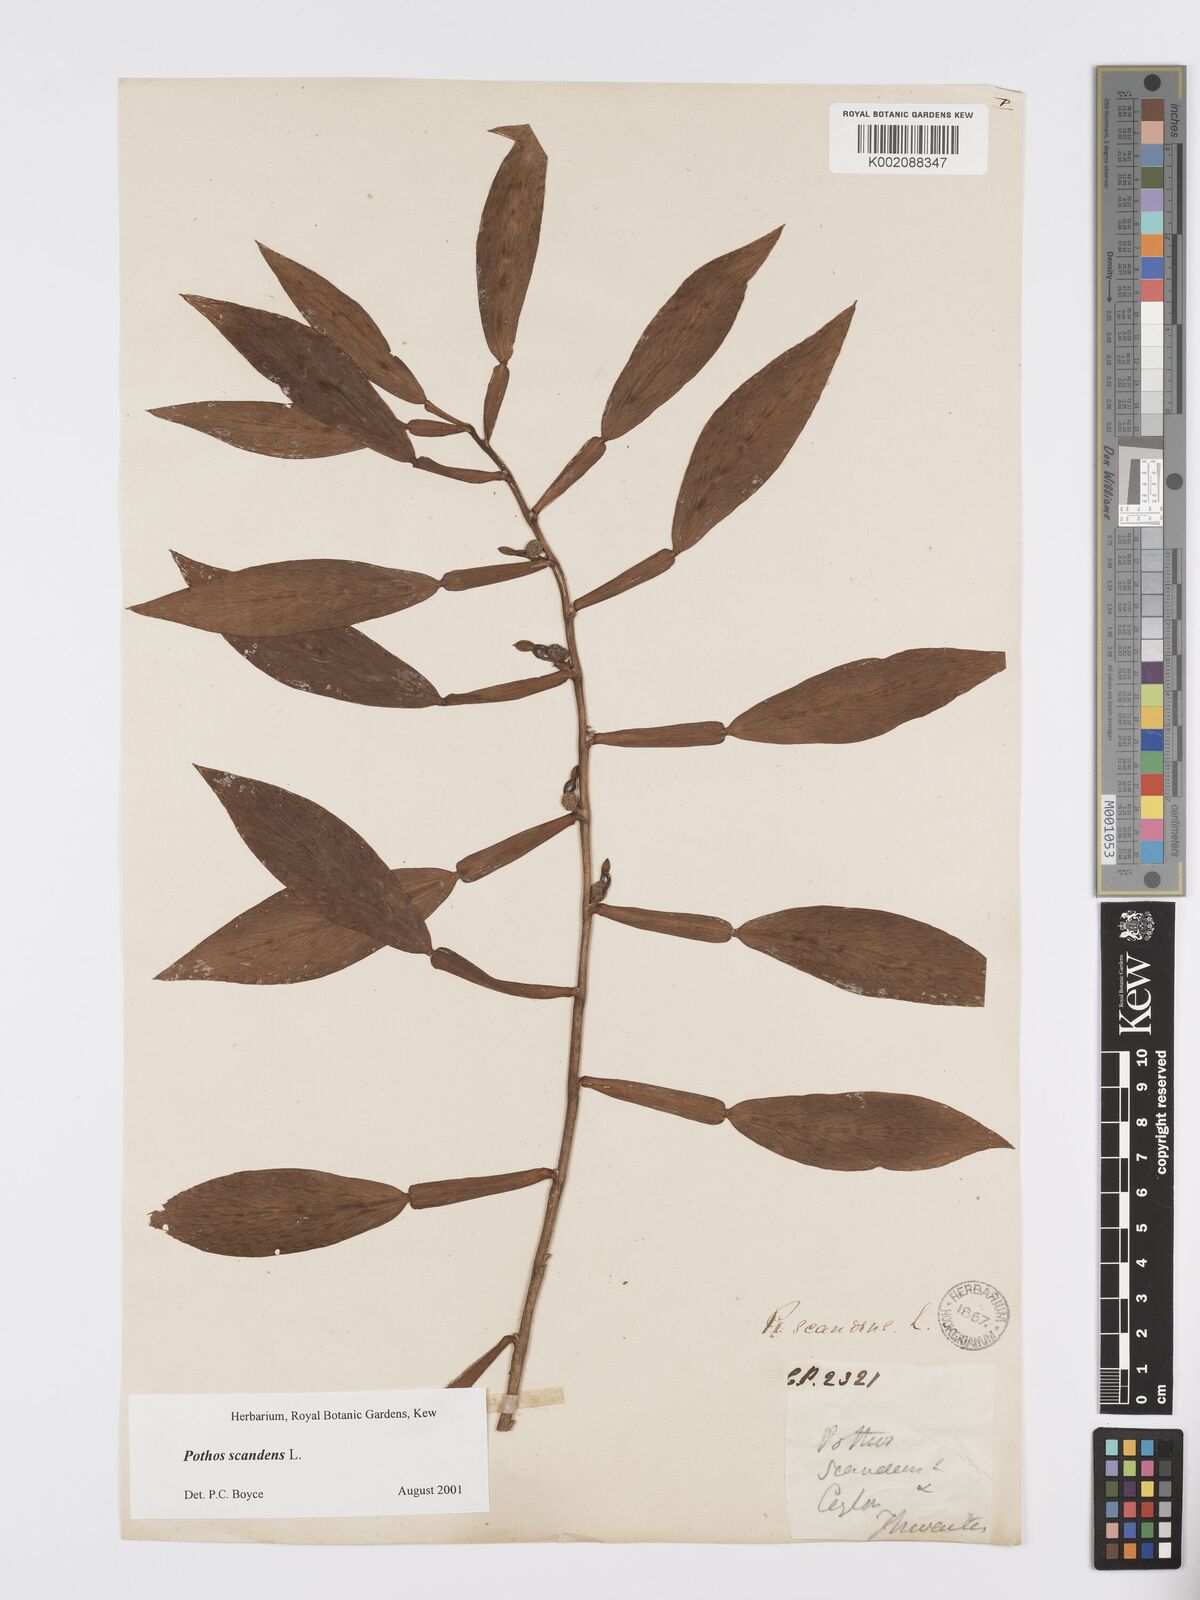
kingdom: Plantae
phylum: Tracheophyta
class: Liliopsida
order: Alismatales
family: Araceae
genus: Pothos
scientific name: Pothos scandens
